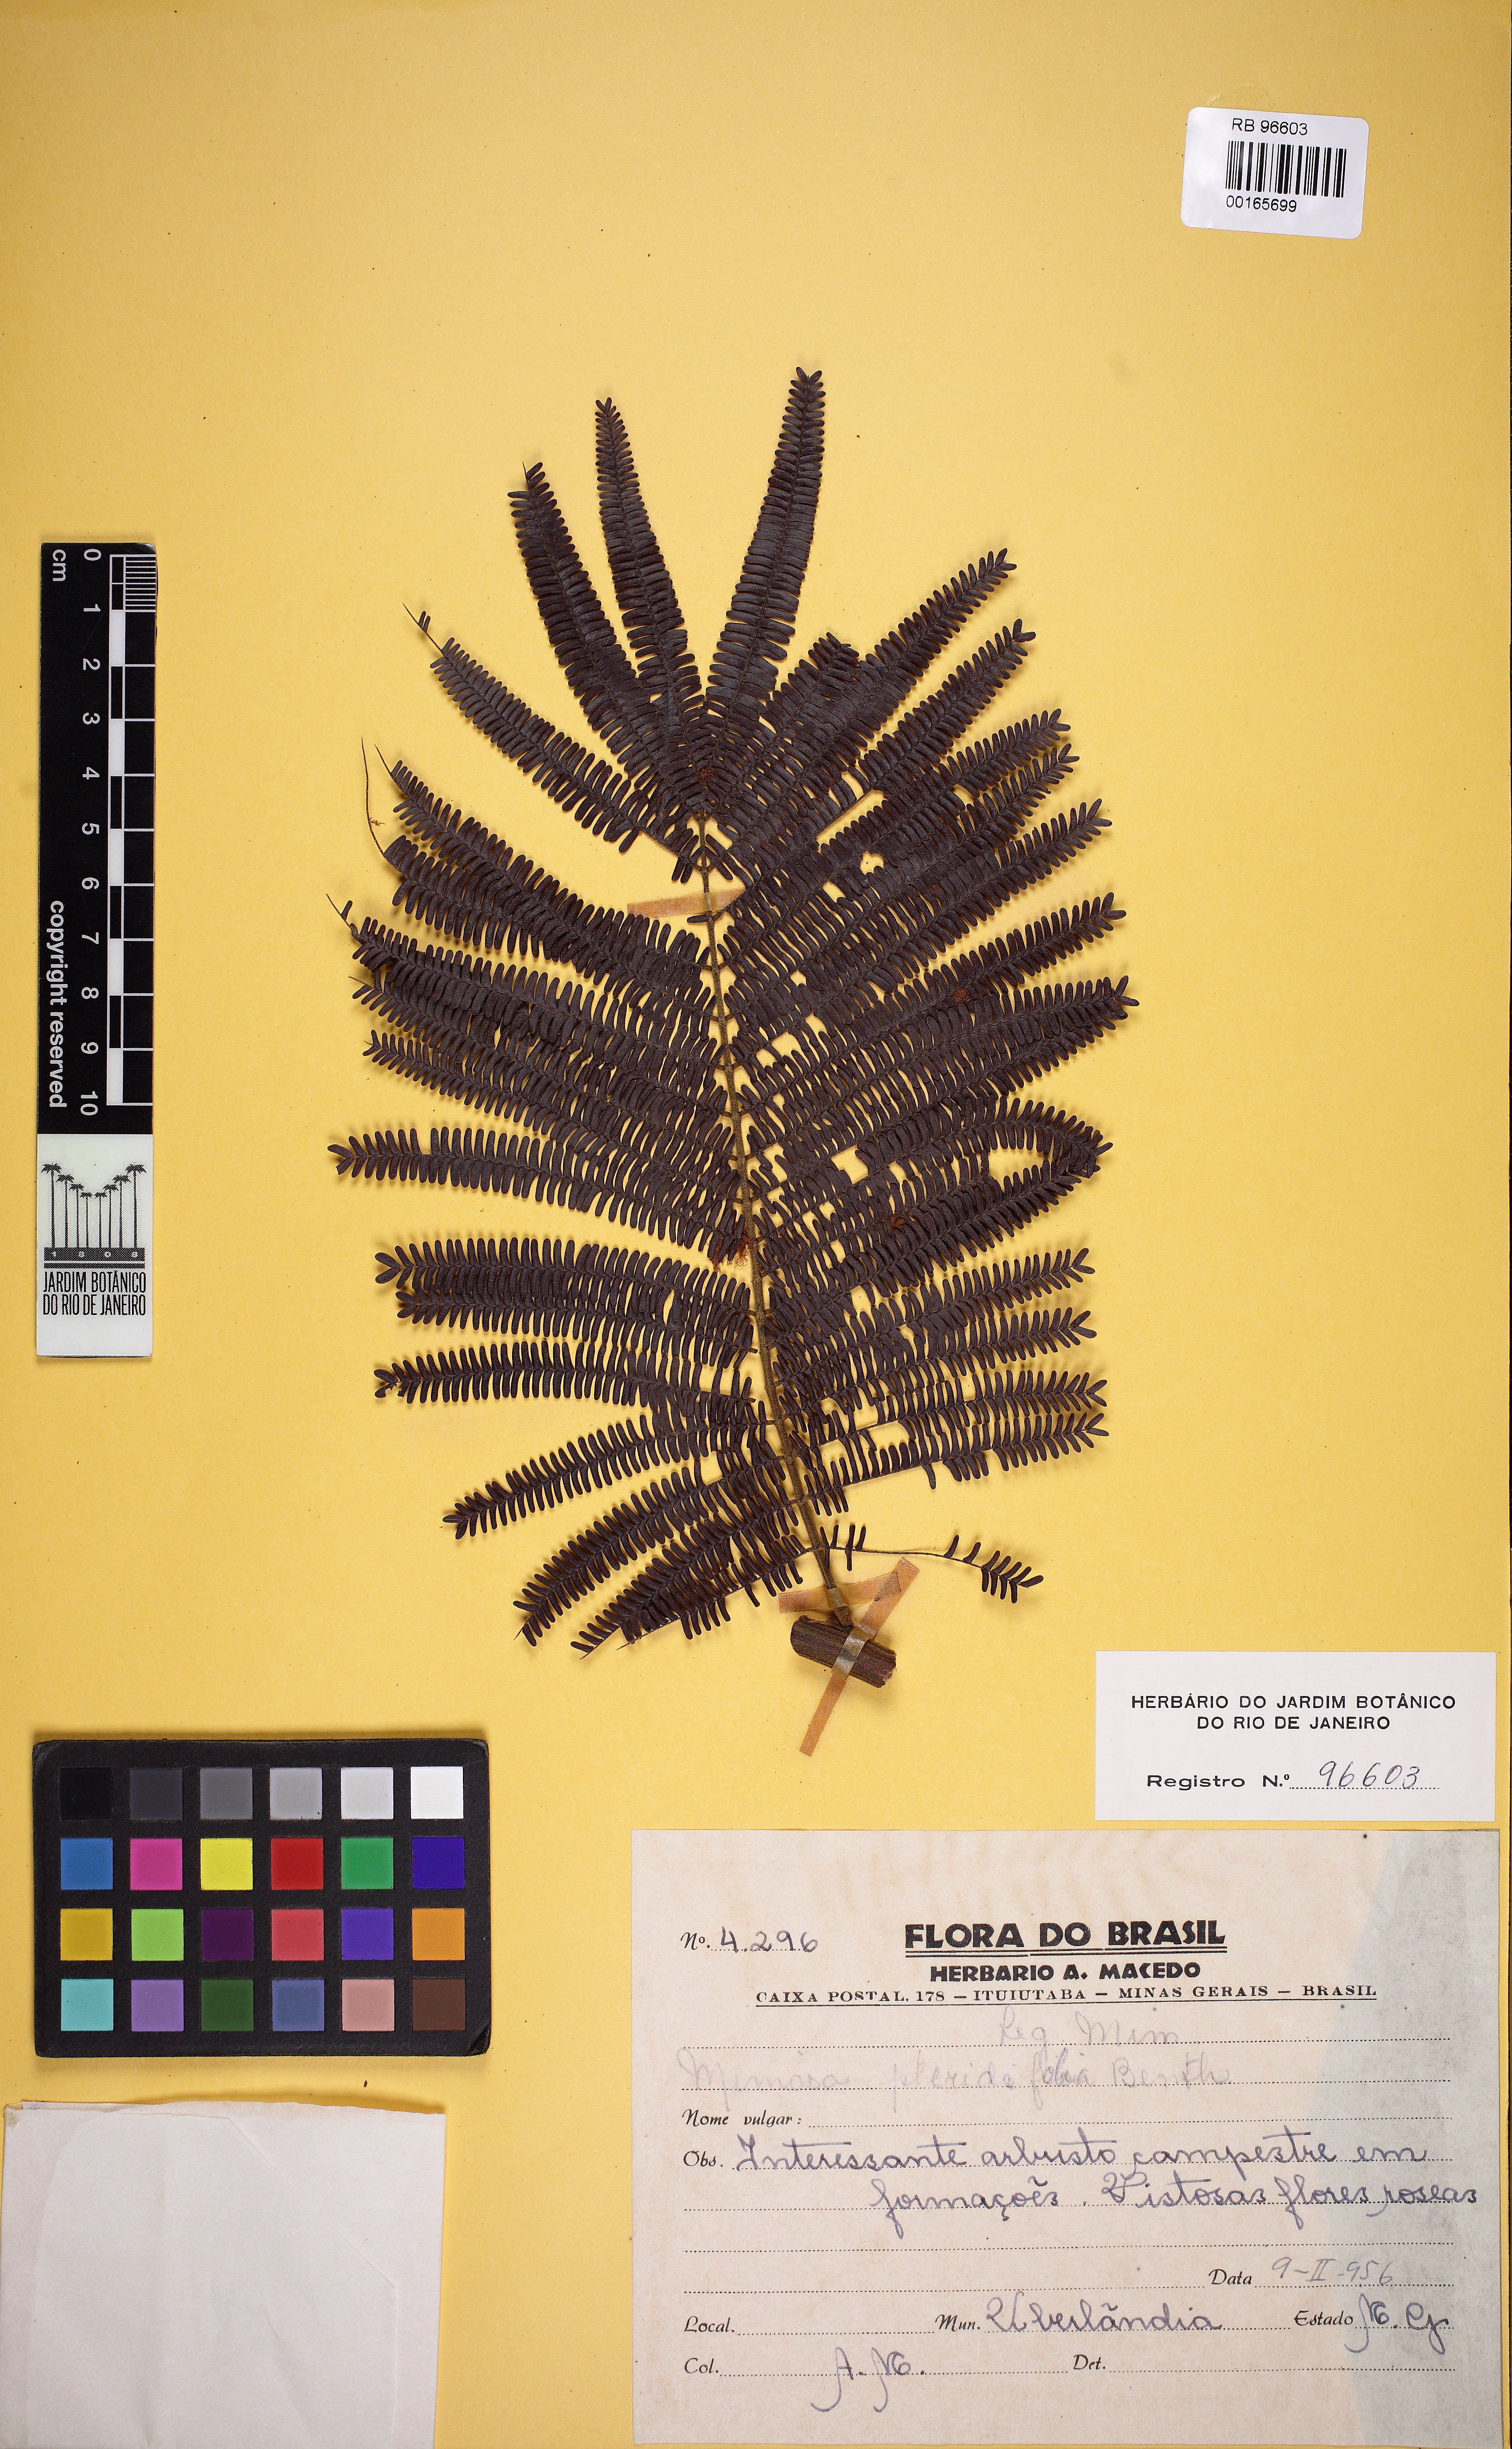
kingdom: Plantae
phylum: Tracheophyta
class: Magnoliopsida
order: Fabales
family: Fabaceae
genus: Mimosa
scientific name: Mimosa pteridifolia
